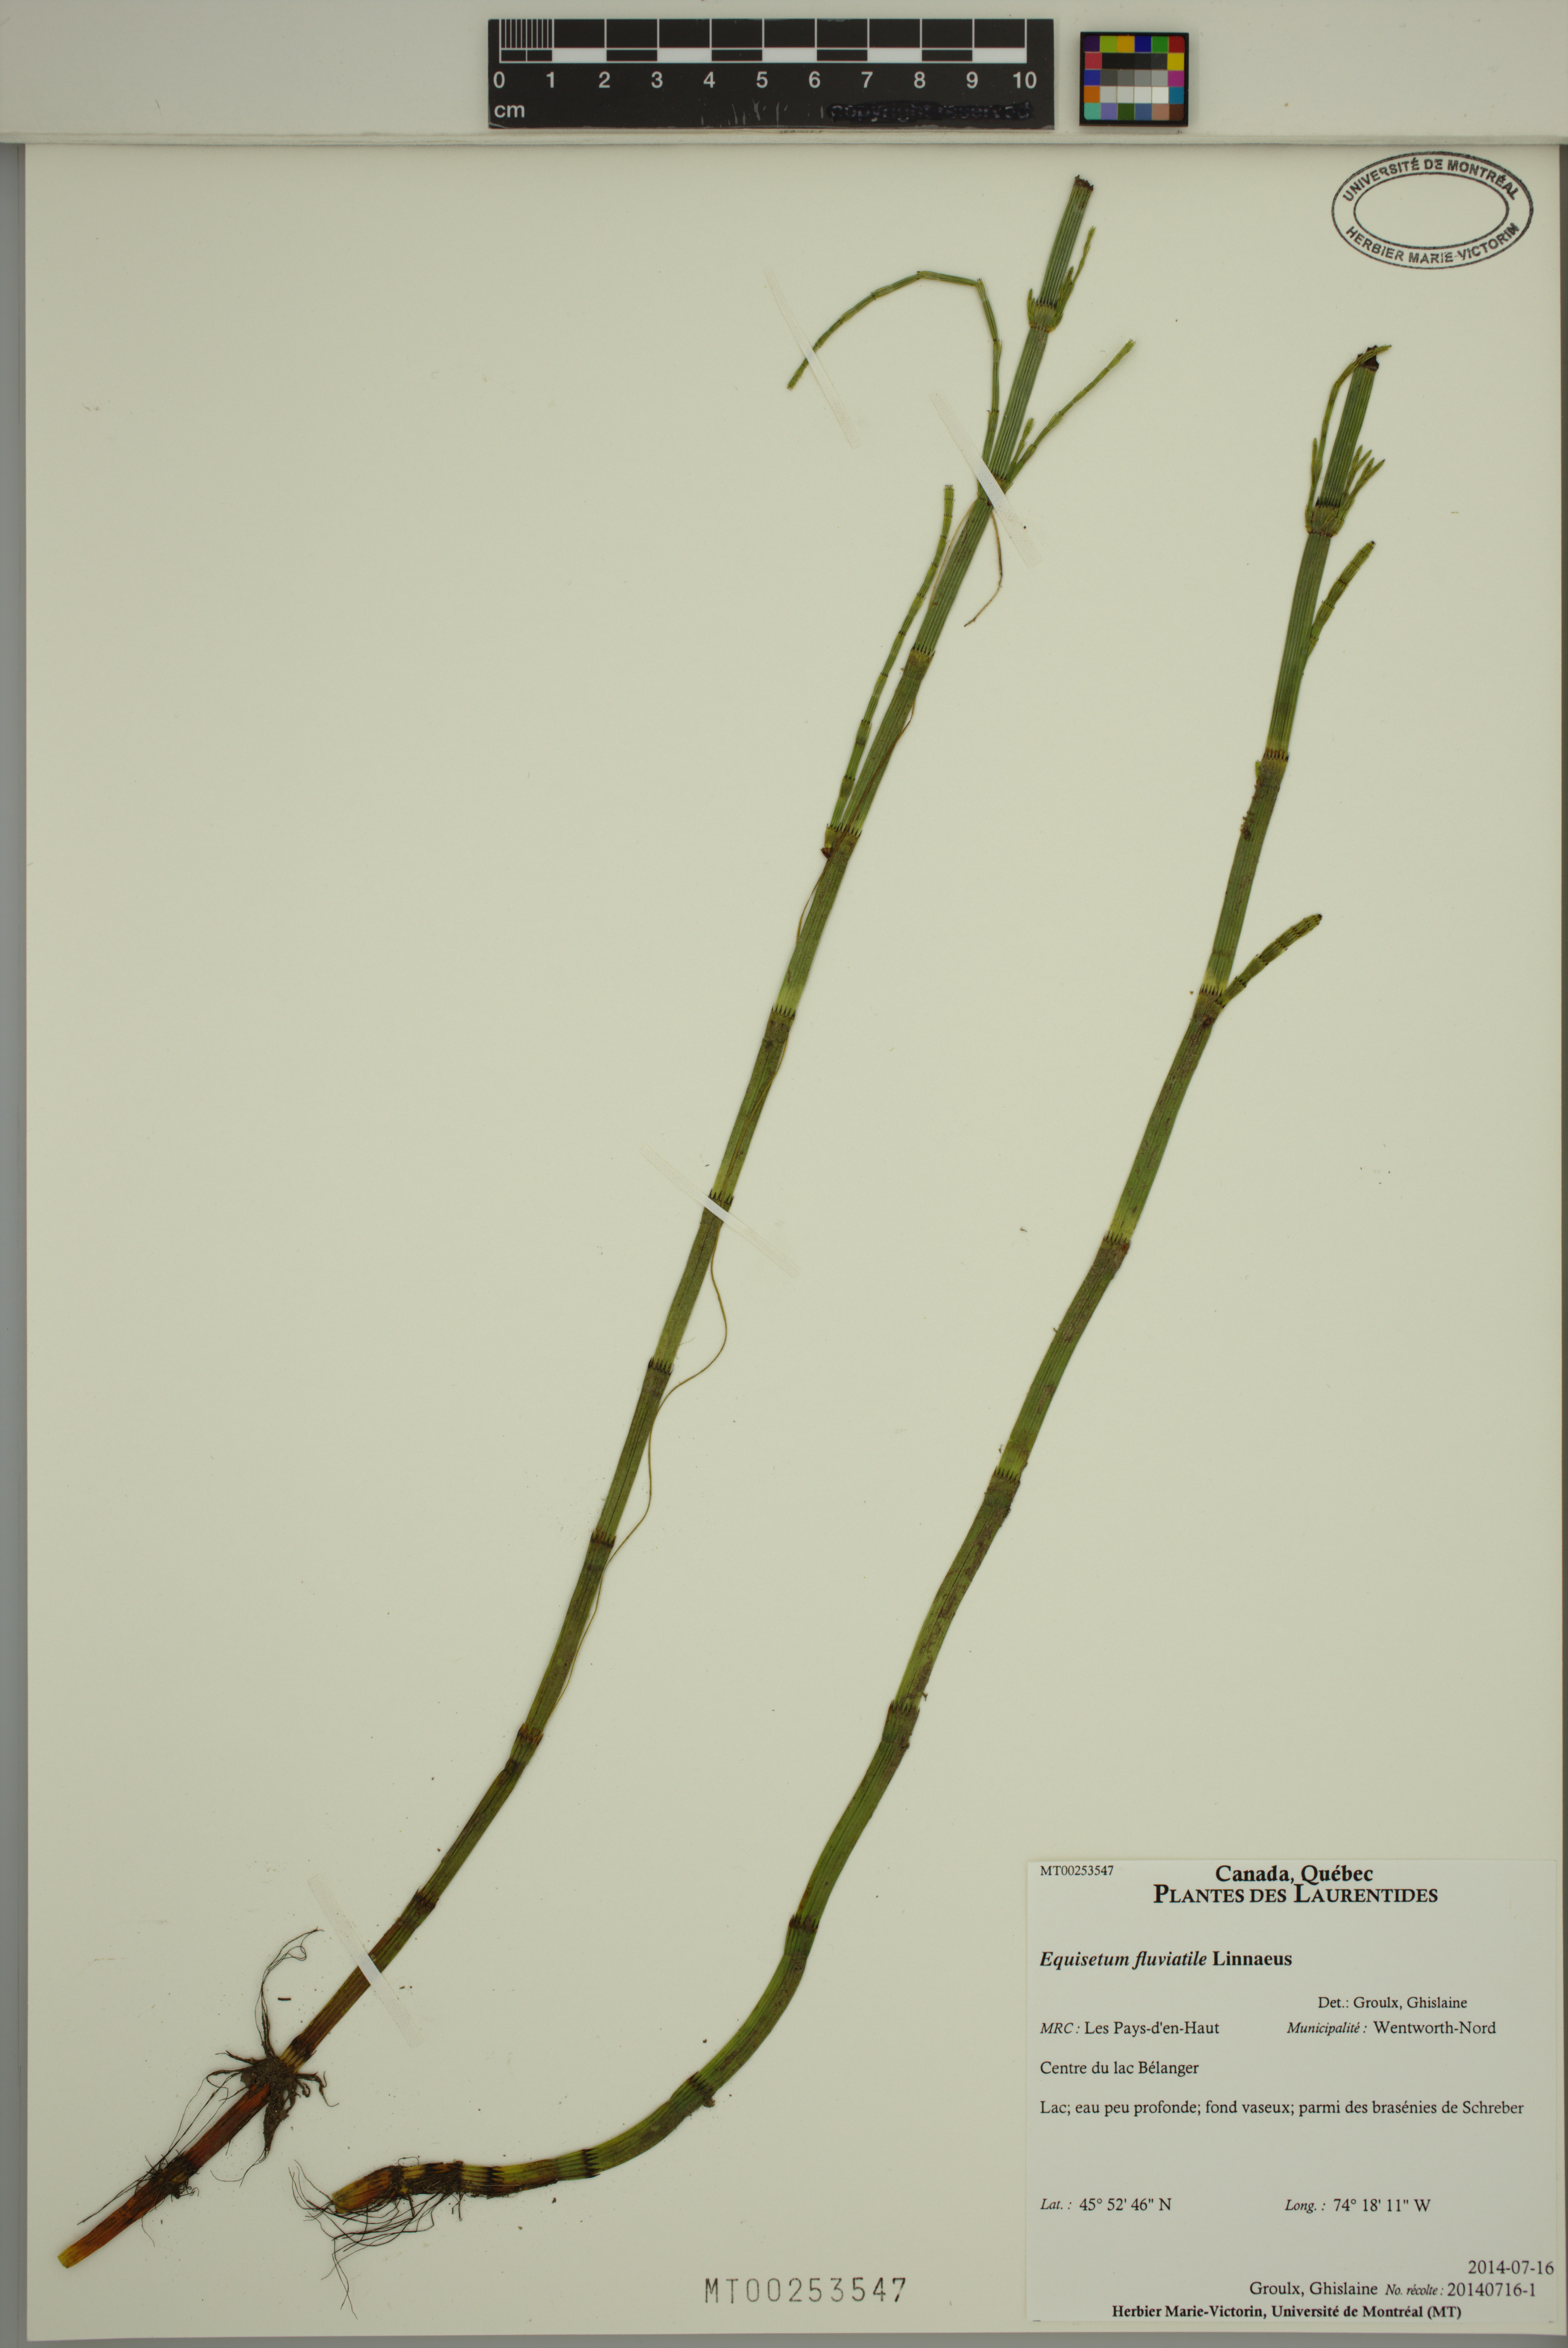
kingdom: Plantae
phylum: Tracheophyta
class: Polypodiopsida
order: Equisetales
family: Equisetaceae
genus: Equisetum
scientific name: Equisetum fluviatile
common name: Water horsetail
